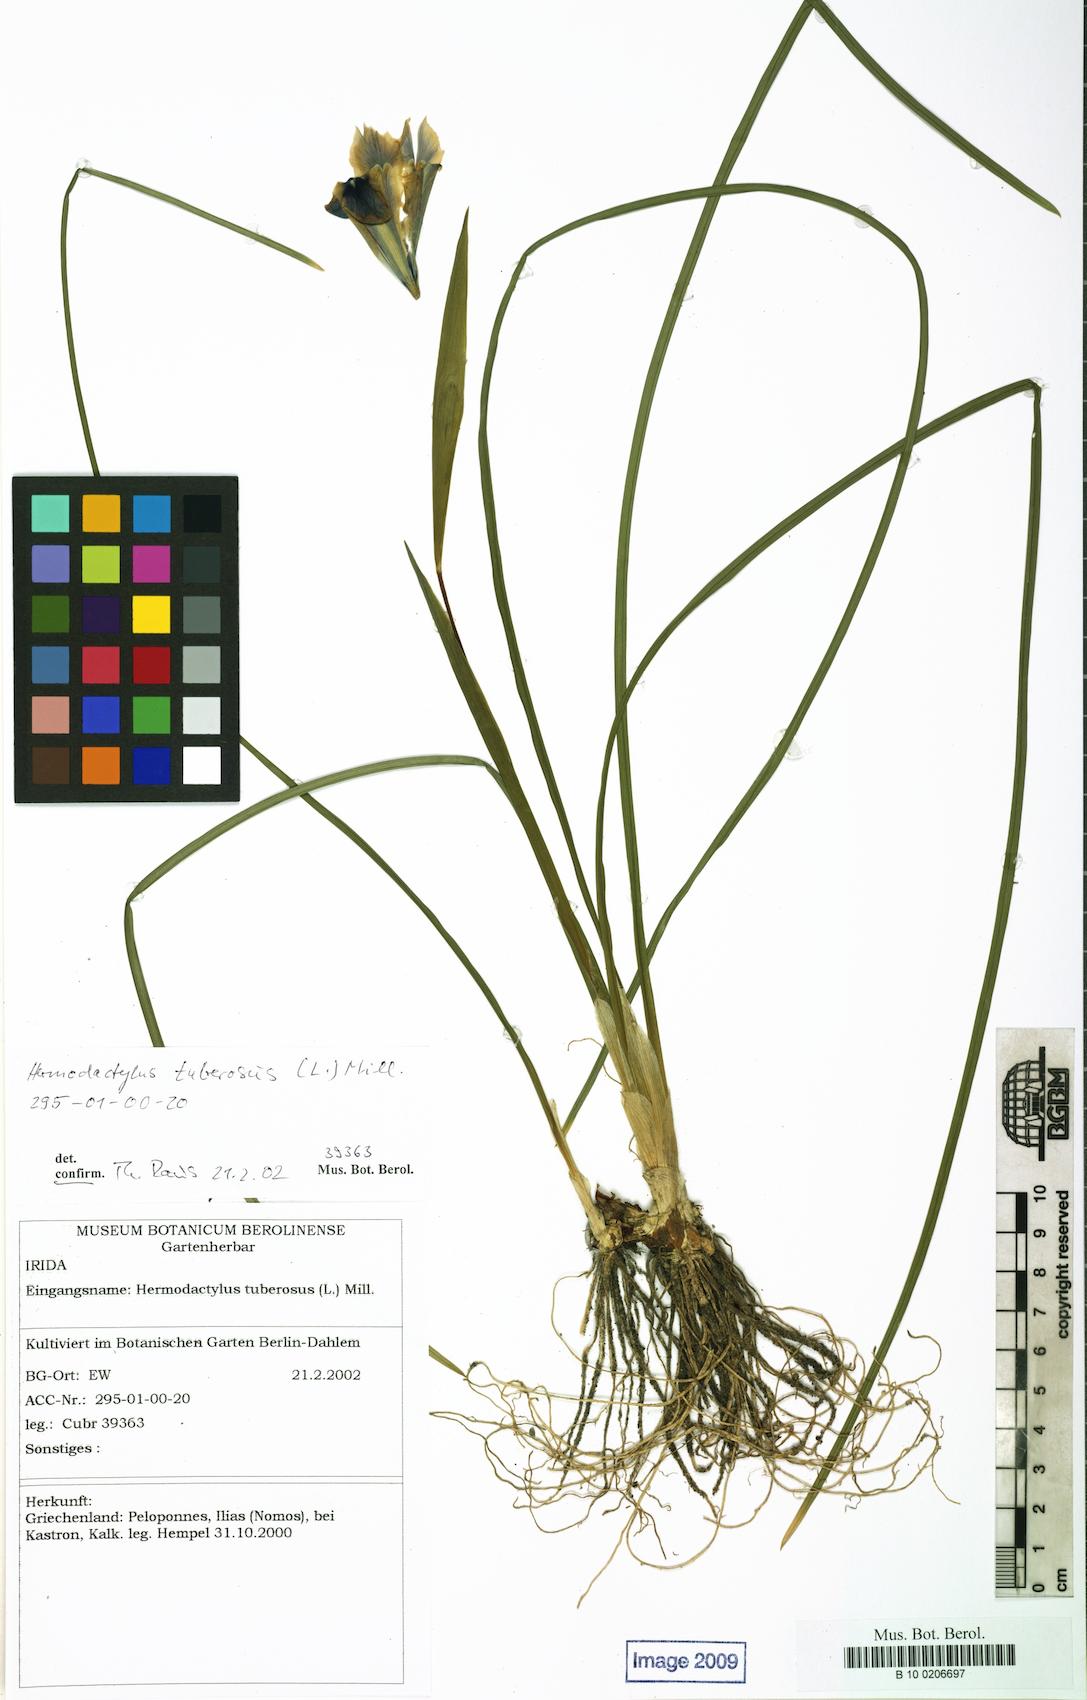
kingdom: Plantae
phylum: Tracheophyta
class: Liliopsida
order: Asparagales
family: Iridaceae
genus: Iris
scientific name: Iris tuberosa
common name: Snake's-head iris
